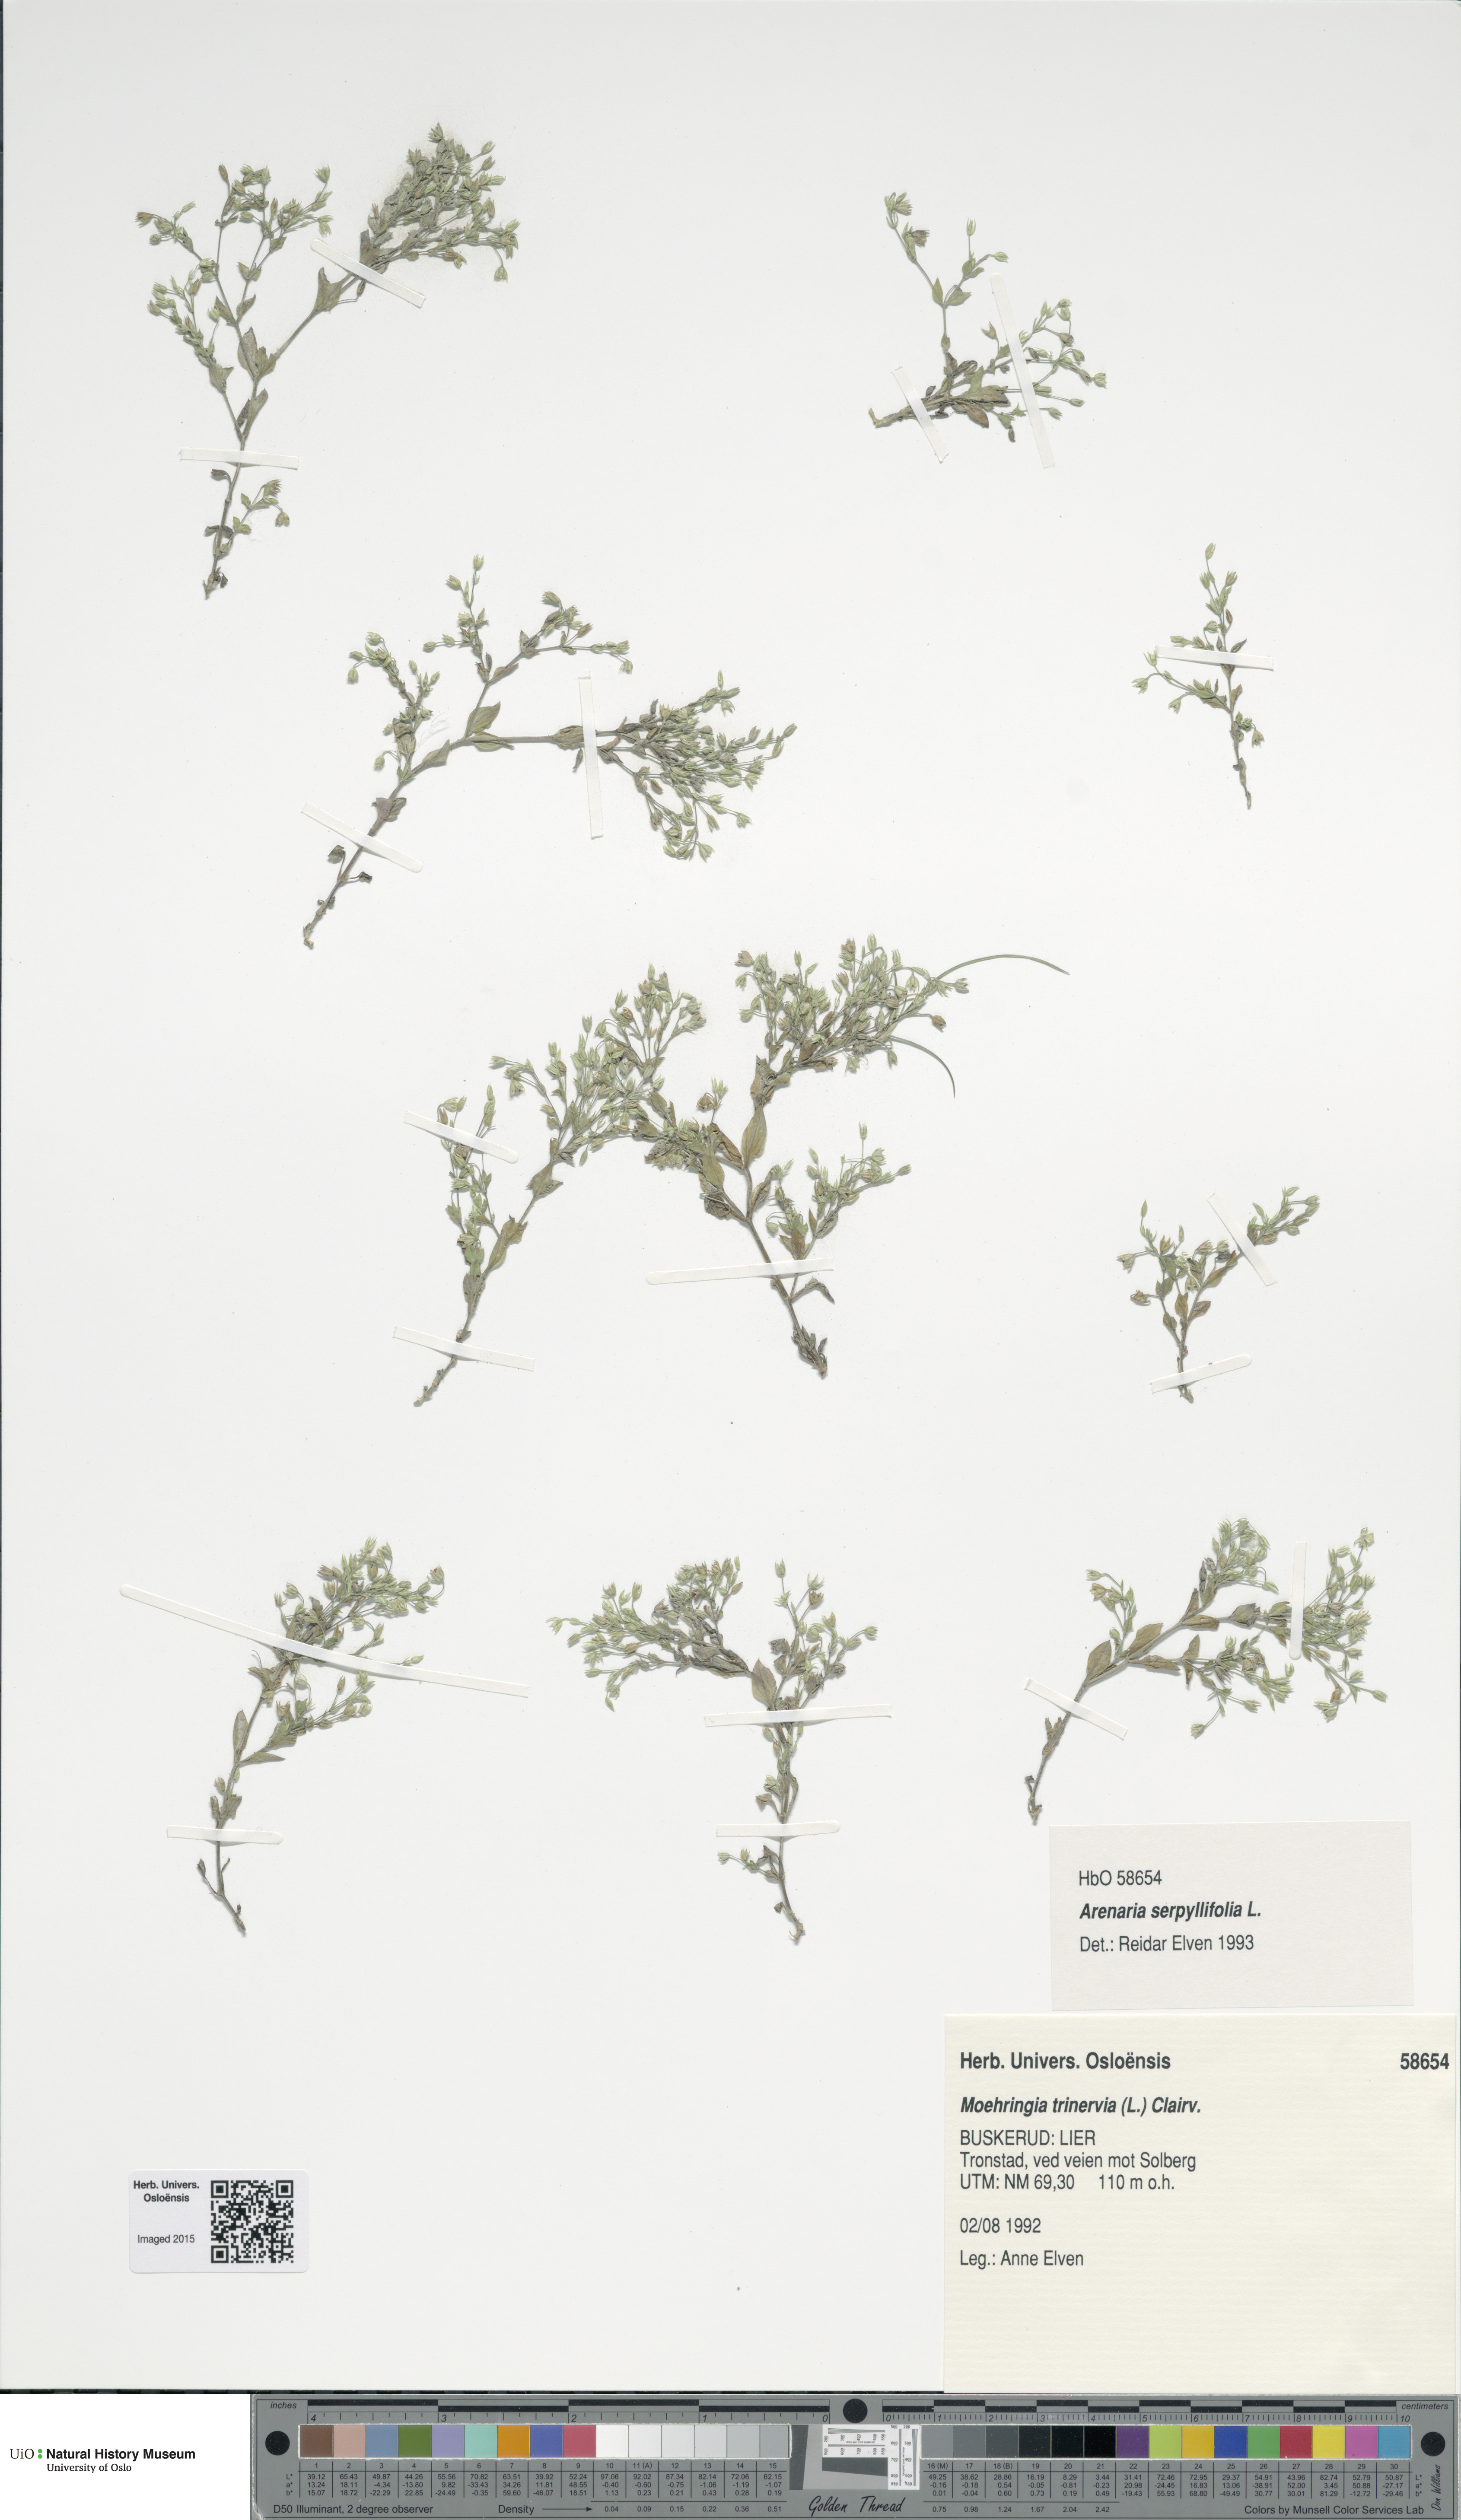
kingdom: Plantae
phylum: Tracheophyta
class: Magnoliopsida
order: Caryophyllales
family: Caryophyllaceae
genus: Arenaria
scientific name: Arenaria serpyllifolia
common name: Thyme-leaved sandwort
